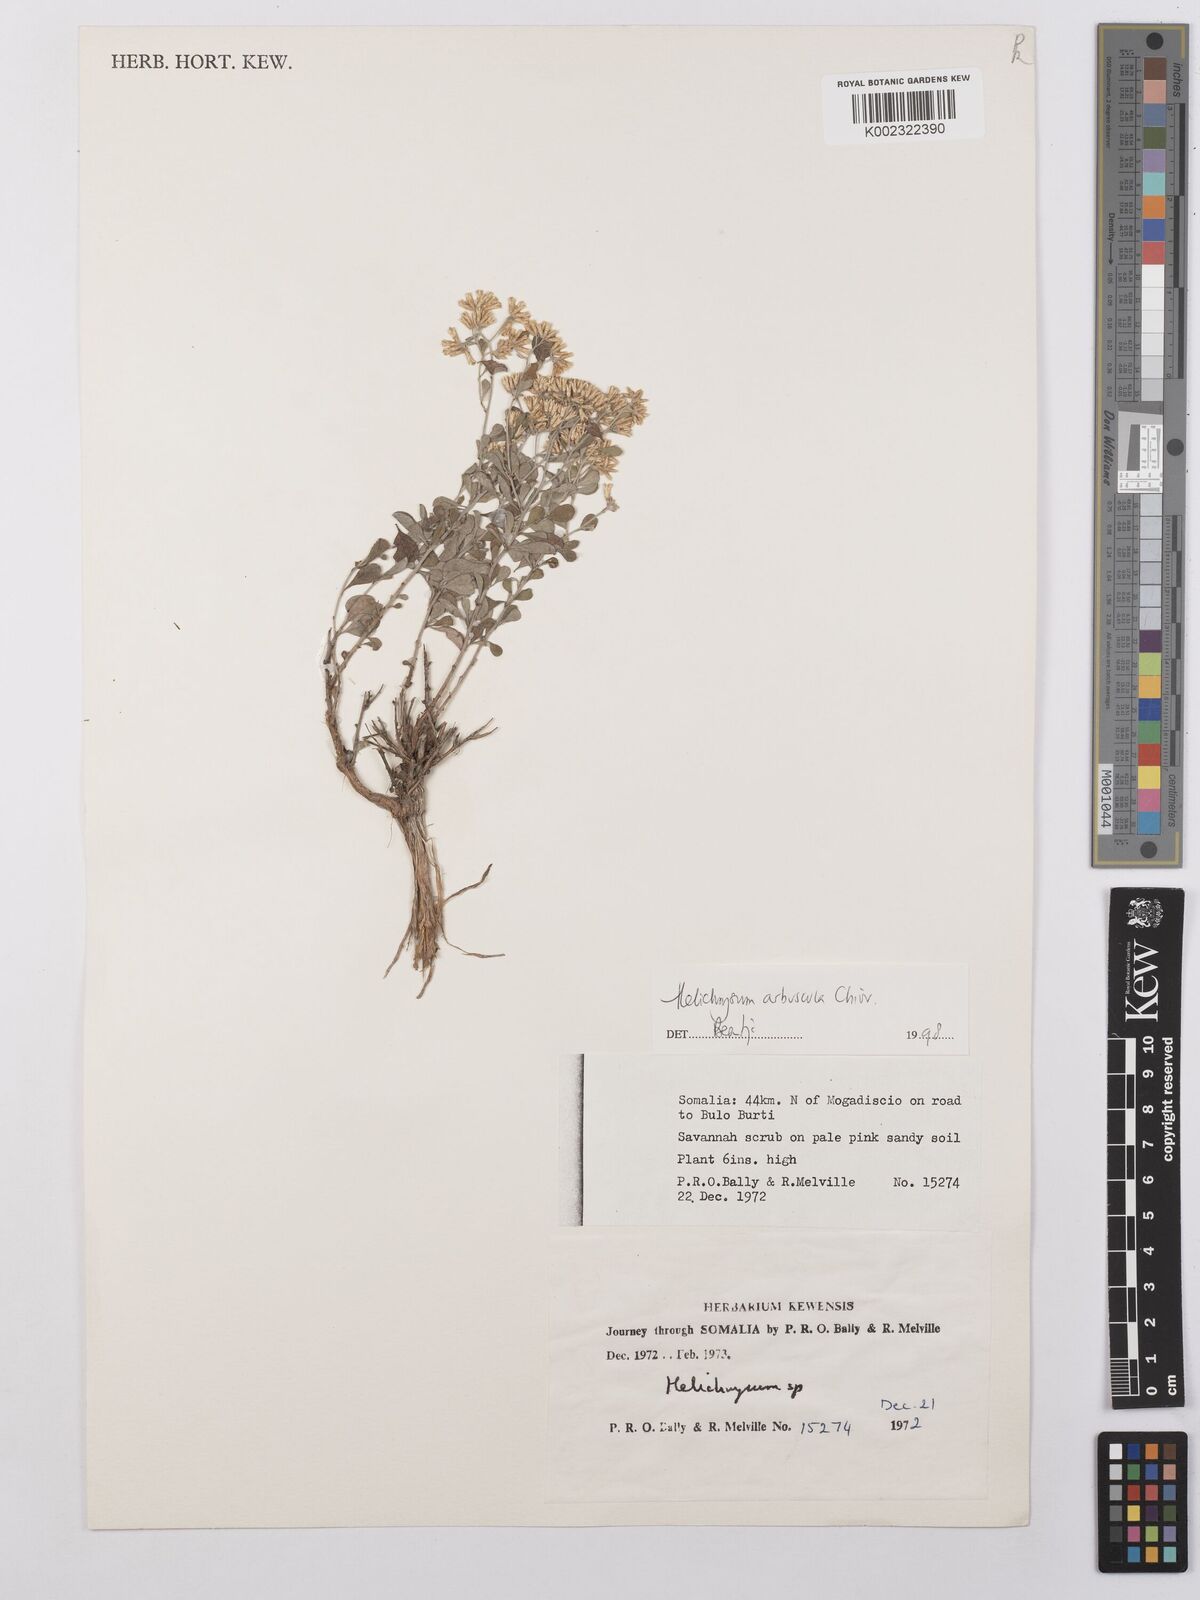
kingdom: Plantae
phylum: Tracheophyta
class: Magnoliopsida
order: Asterales
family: Asteraceae
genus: Helichrysum
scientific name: Helichrysum arbuscula
